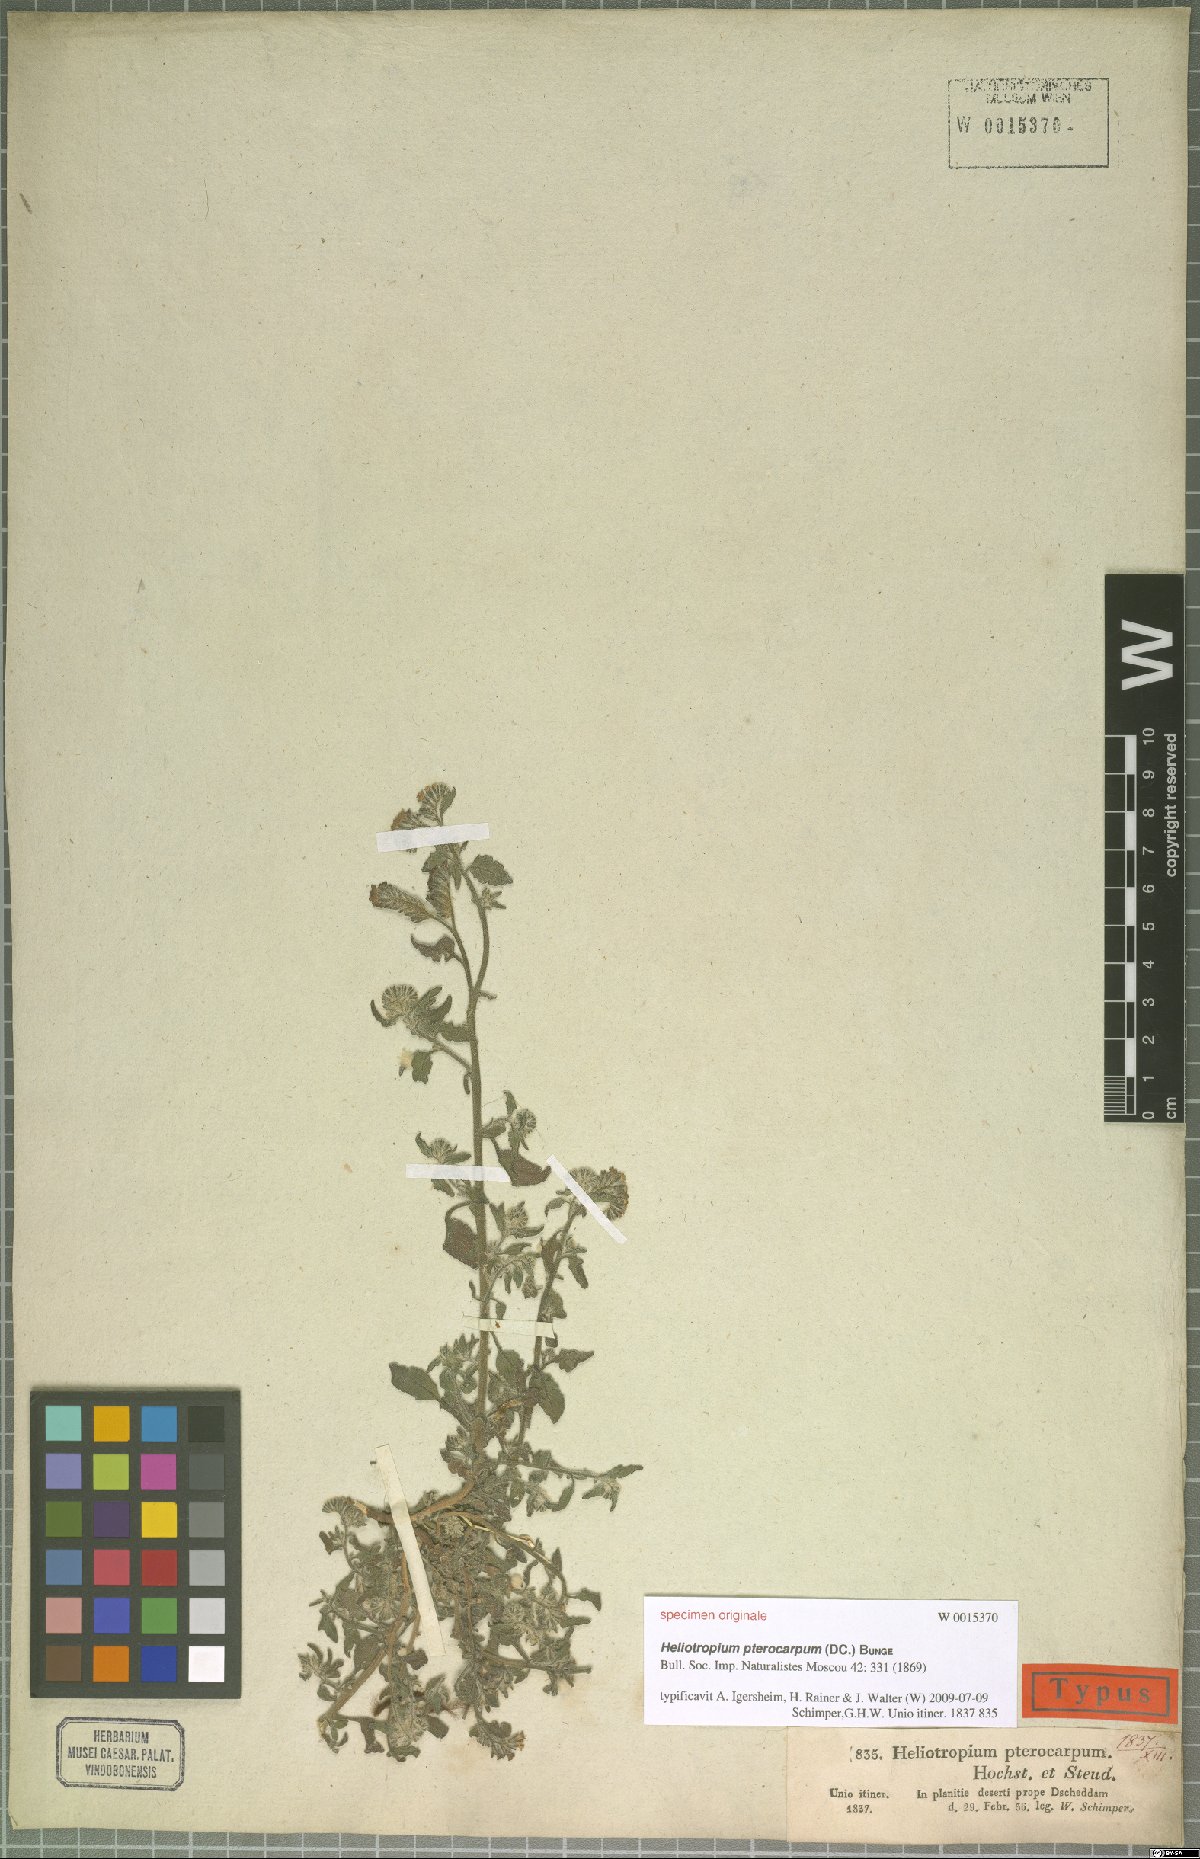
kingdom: Plantae
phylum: Tracheophyta
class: Magnoliopsida
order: Boraginales
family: Heliotropiaceae
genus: Heliotropium
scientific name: Heliotropium pterocarpum
